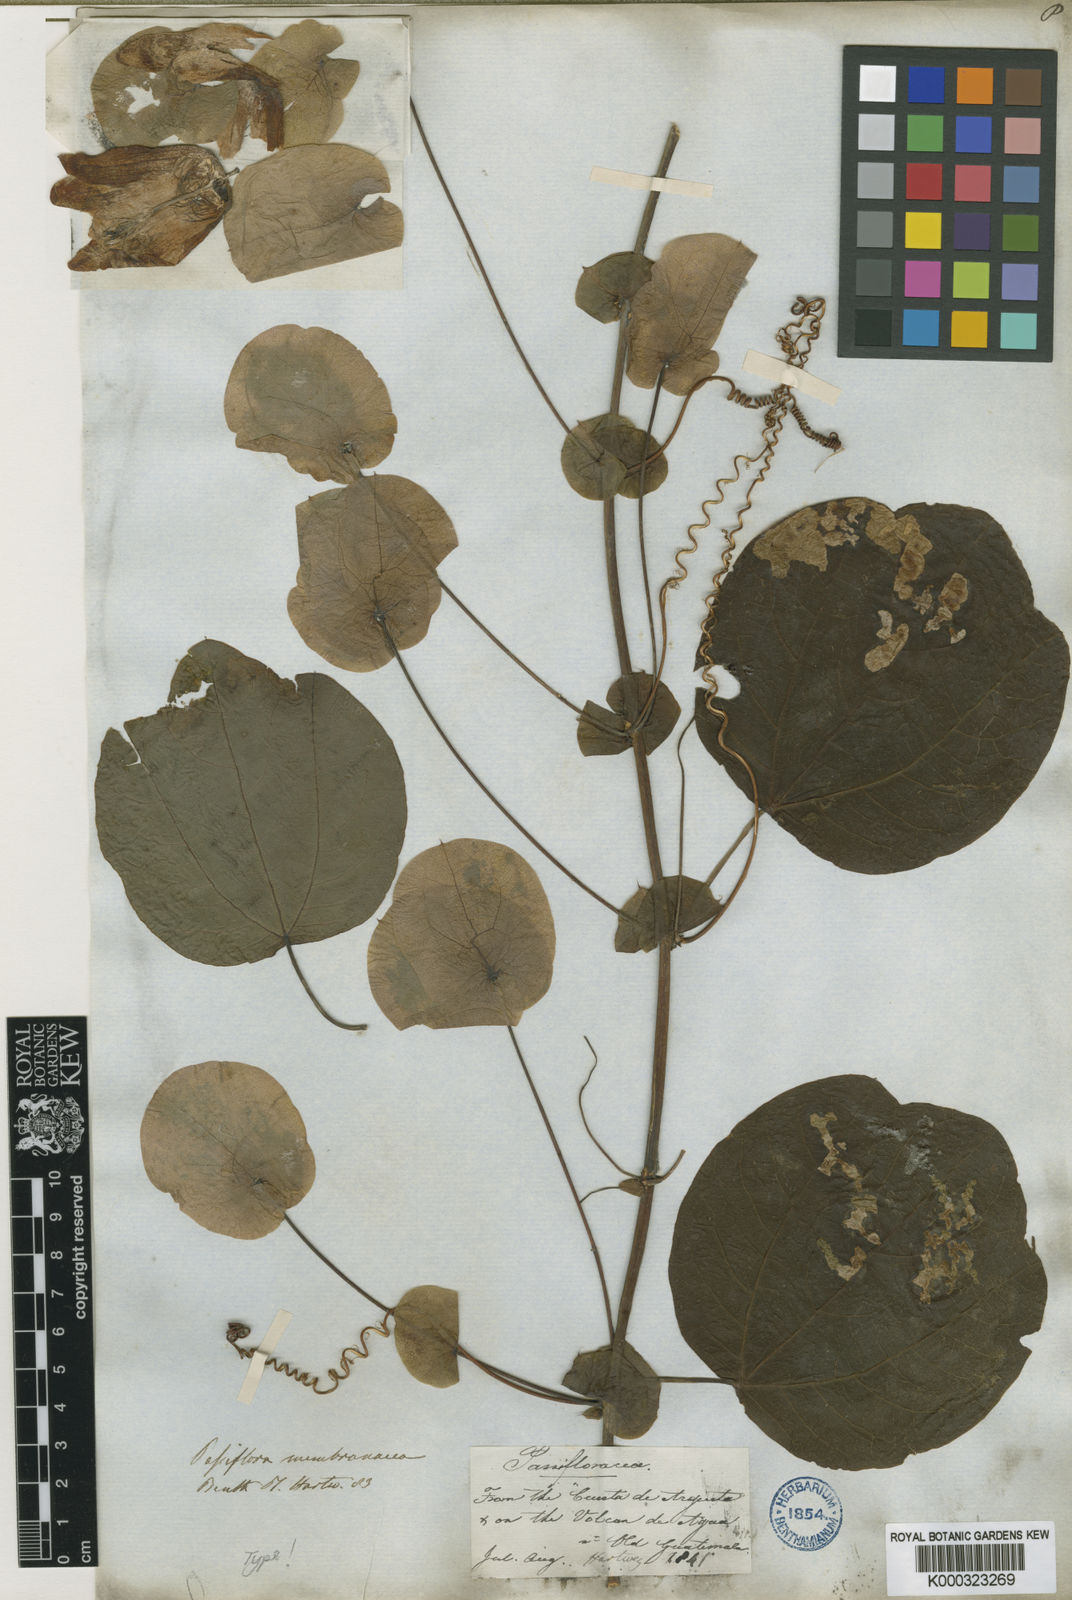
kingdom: Plantae
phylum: Tracheophyta
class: Magnoliopsida
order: Malpighiales
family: Passifloraceae
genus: Passiflora
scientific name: Passiflora membranacea
